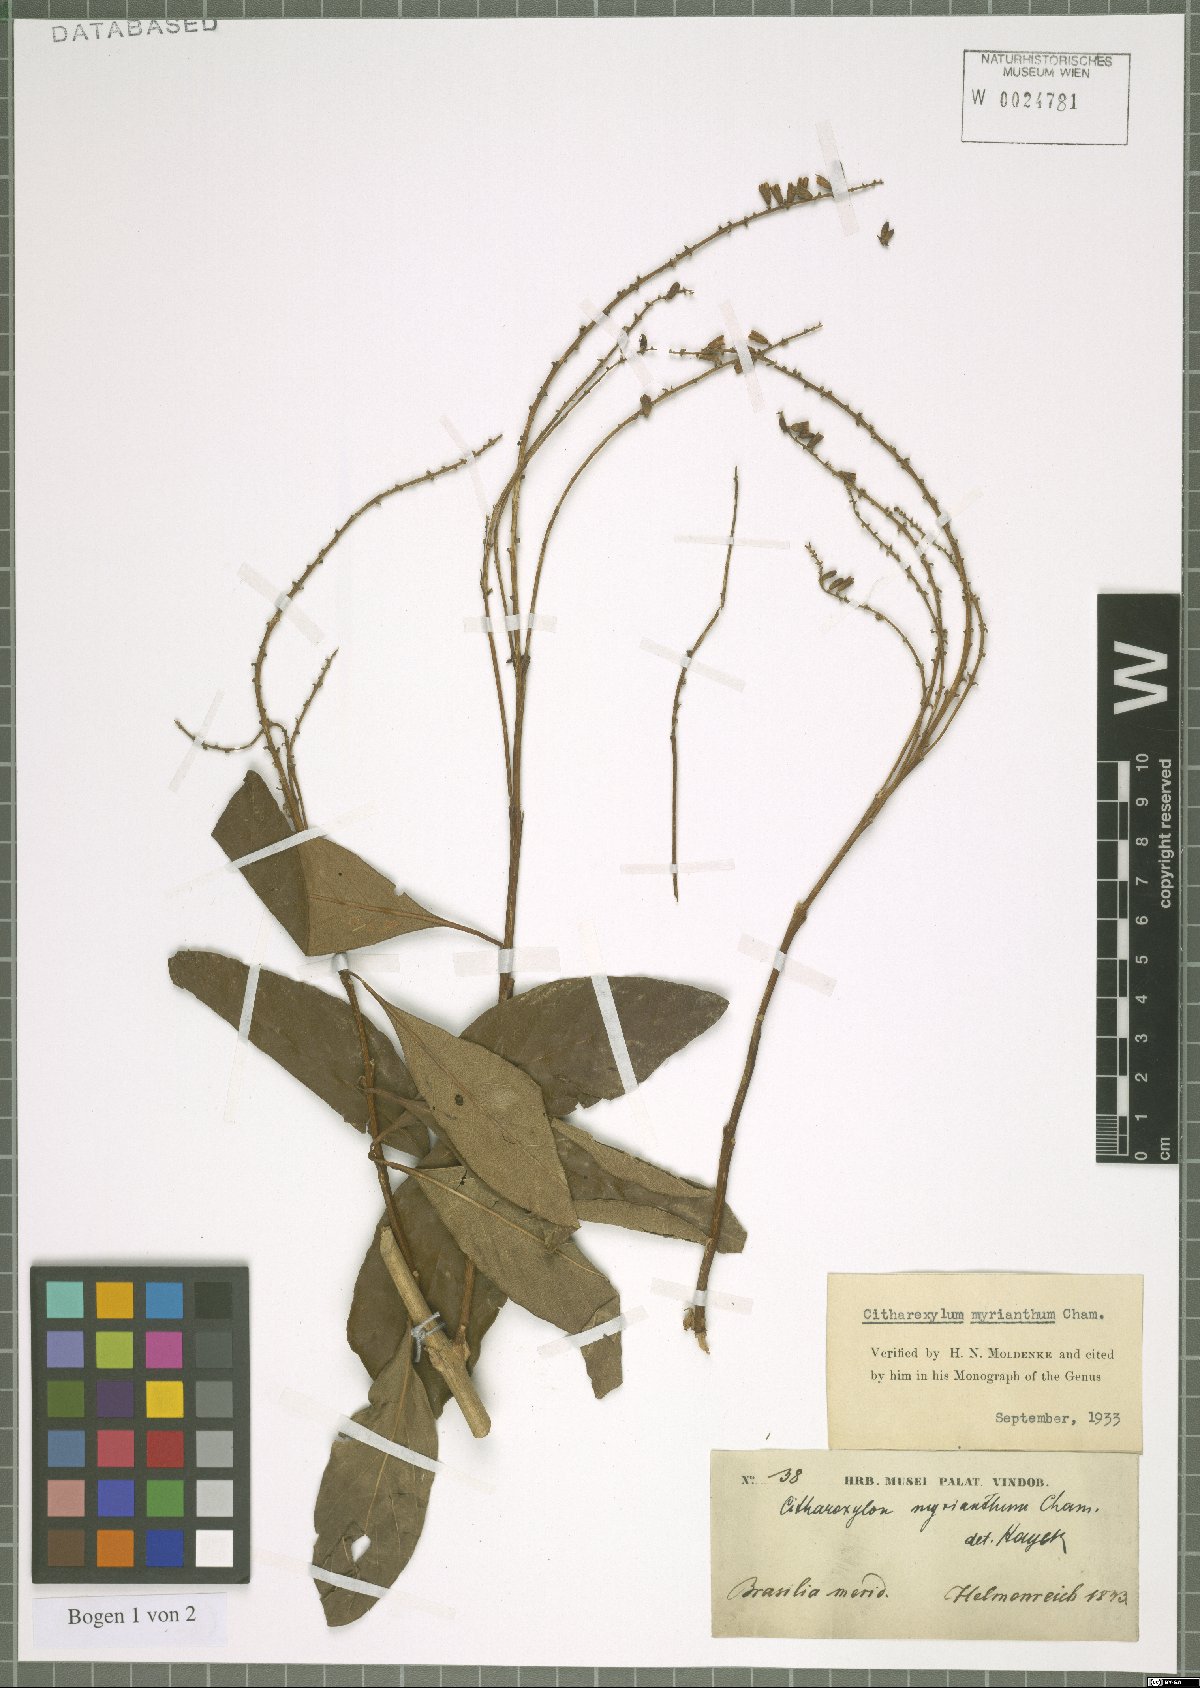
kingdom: Plantae
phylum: Tracheophyta
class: Magnoliopsida
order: Lamiales
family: Verbenaceae
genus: Citharexylum
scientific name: Citharexylum myrianthum
